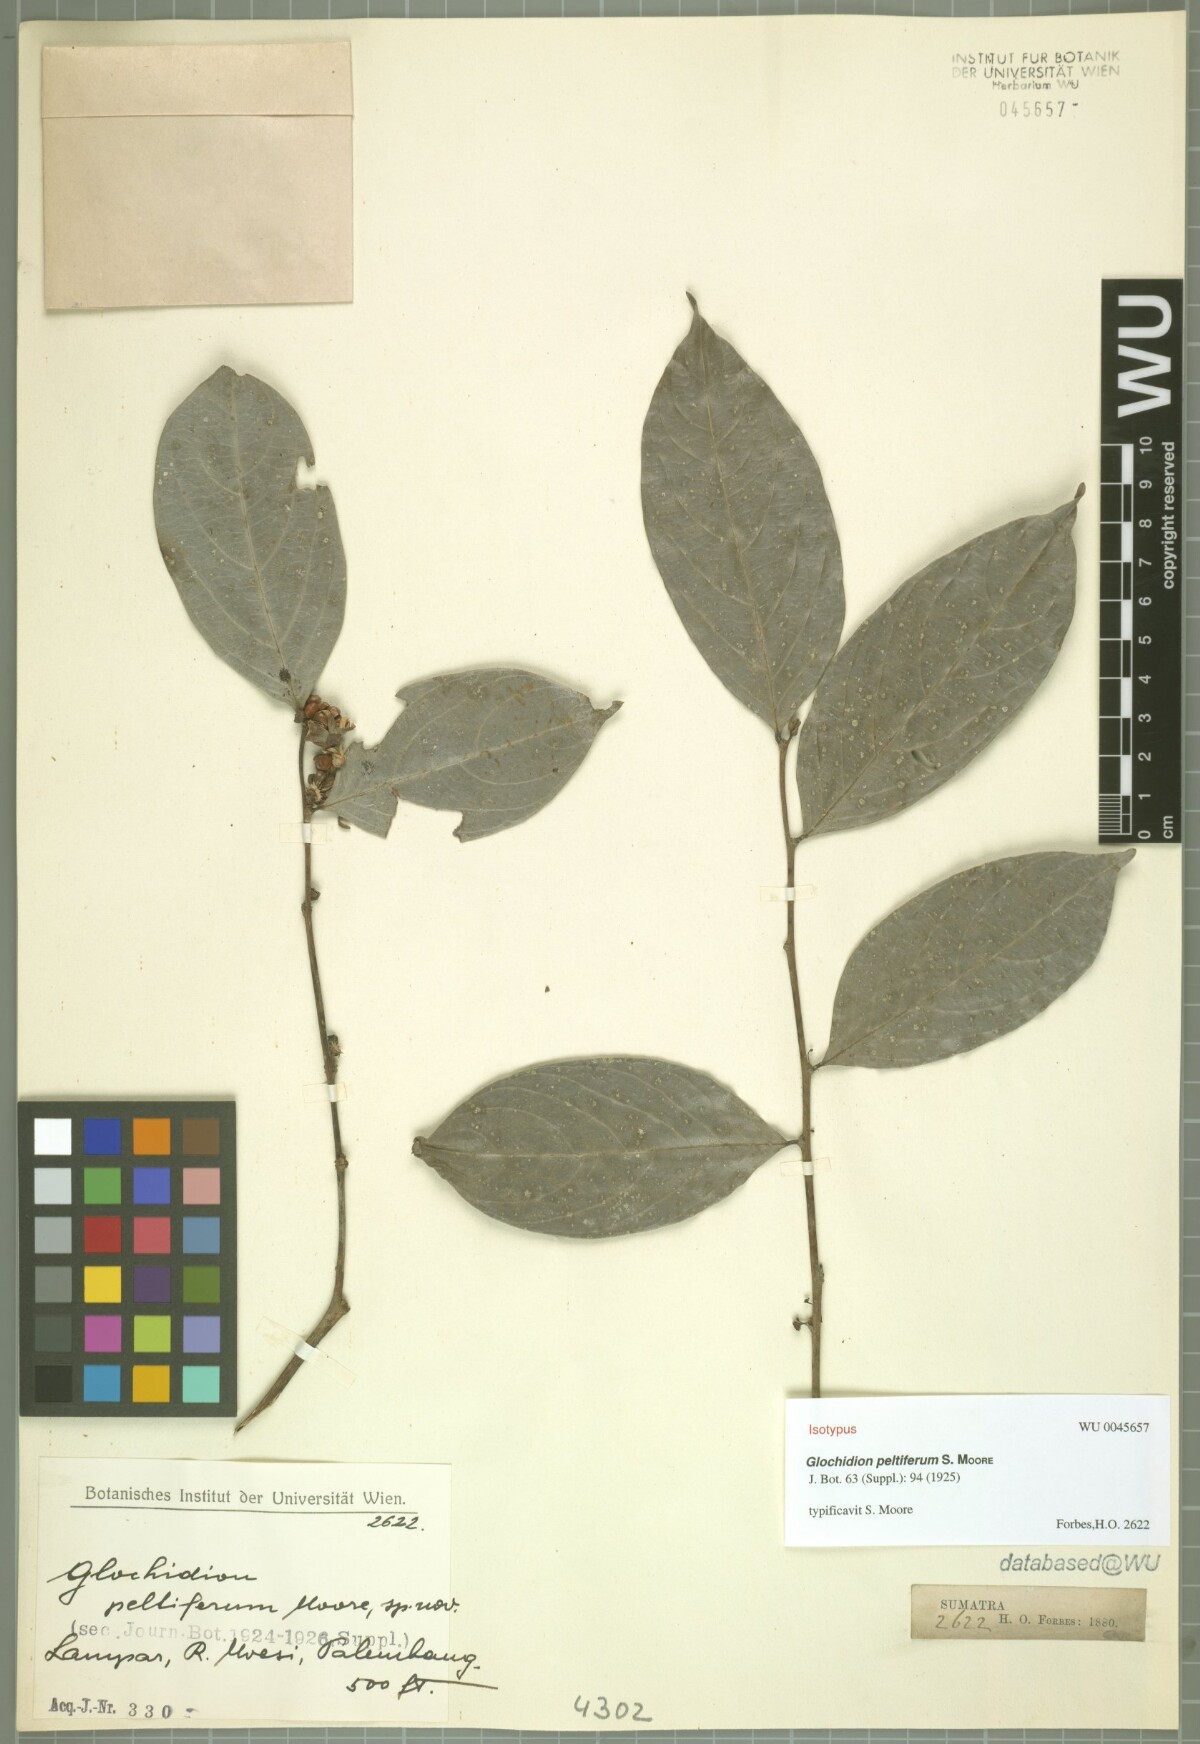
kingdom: Plantae
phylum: Tracheophyta
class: Magnoliopsida
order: Malpighiales
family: Phyllanthaceae
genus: Glochidion
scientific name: Glochidion peltiferum
